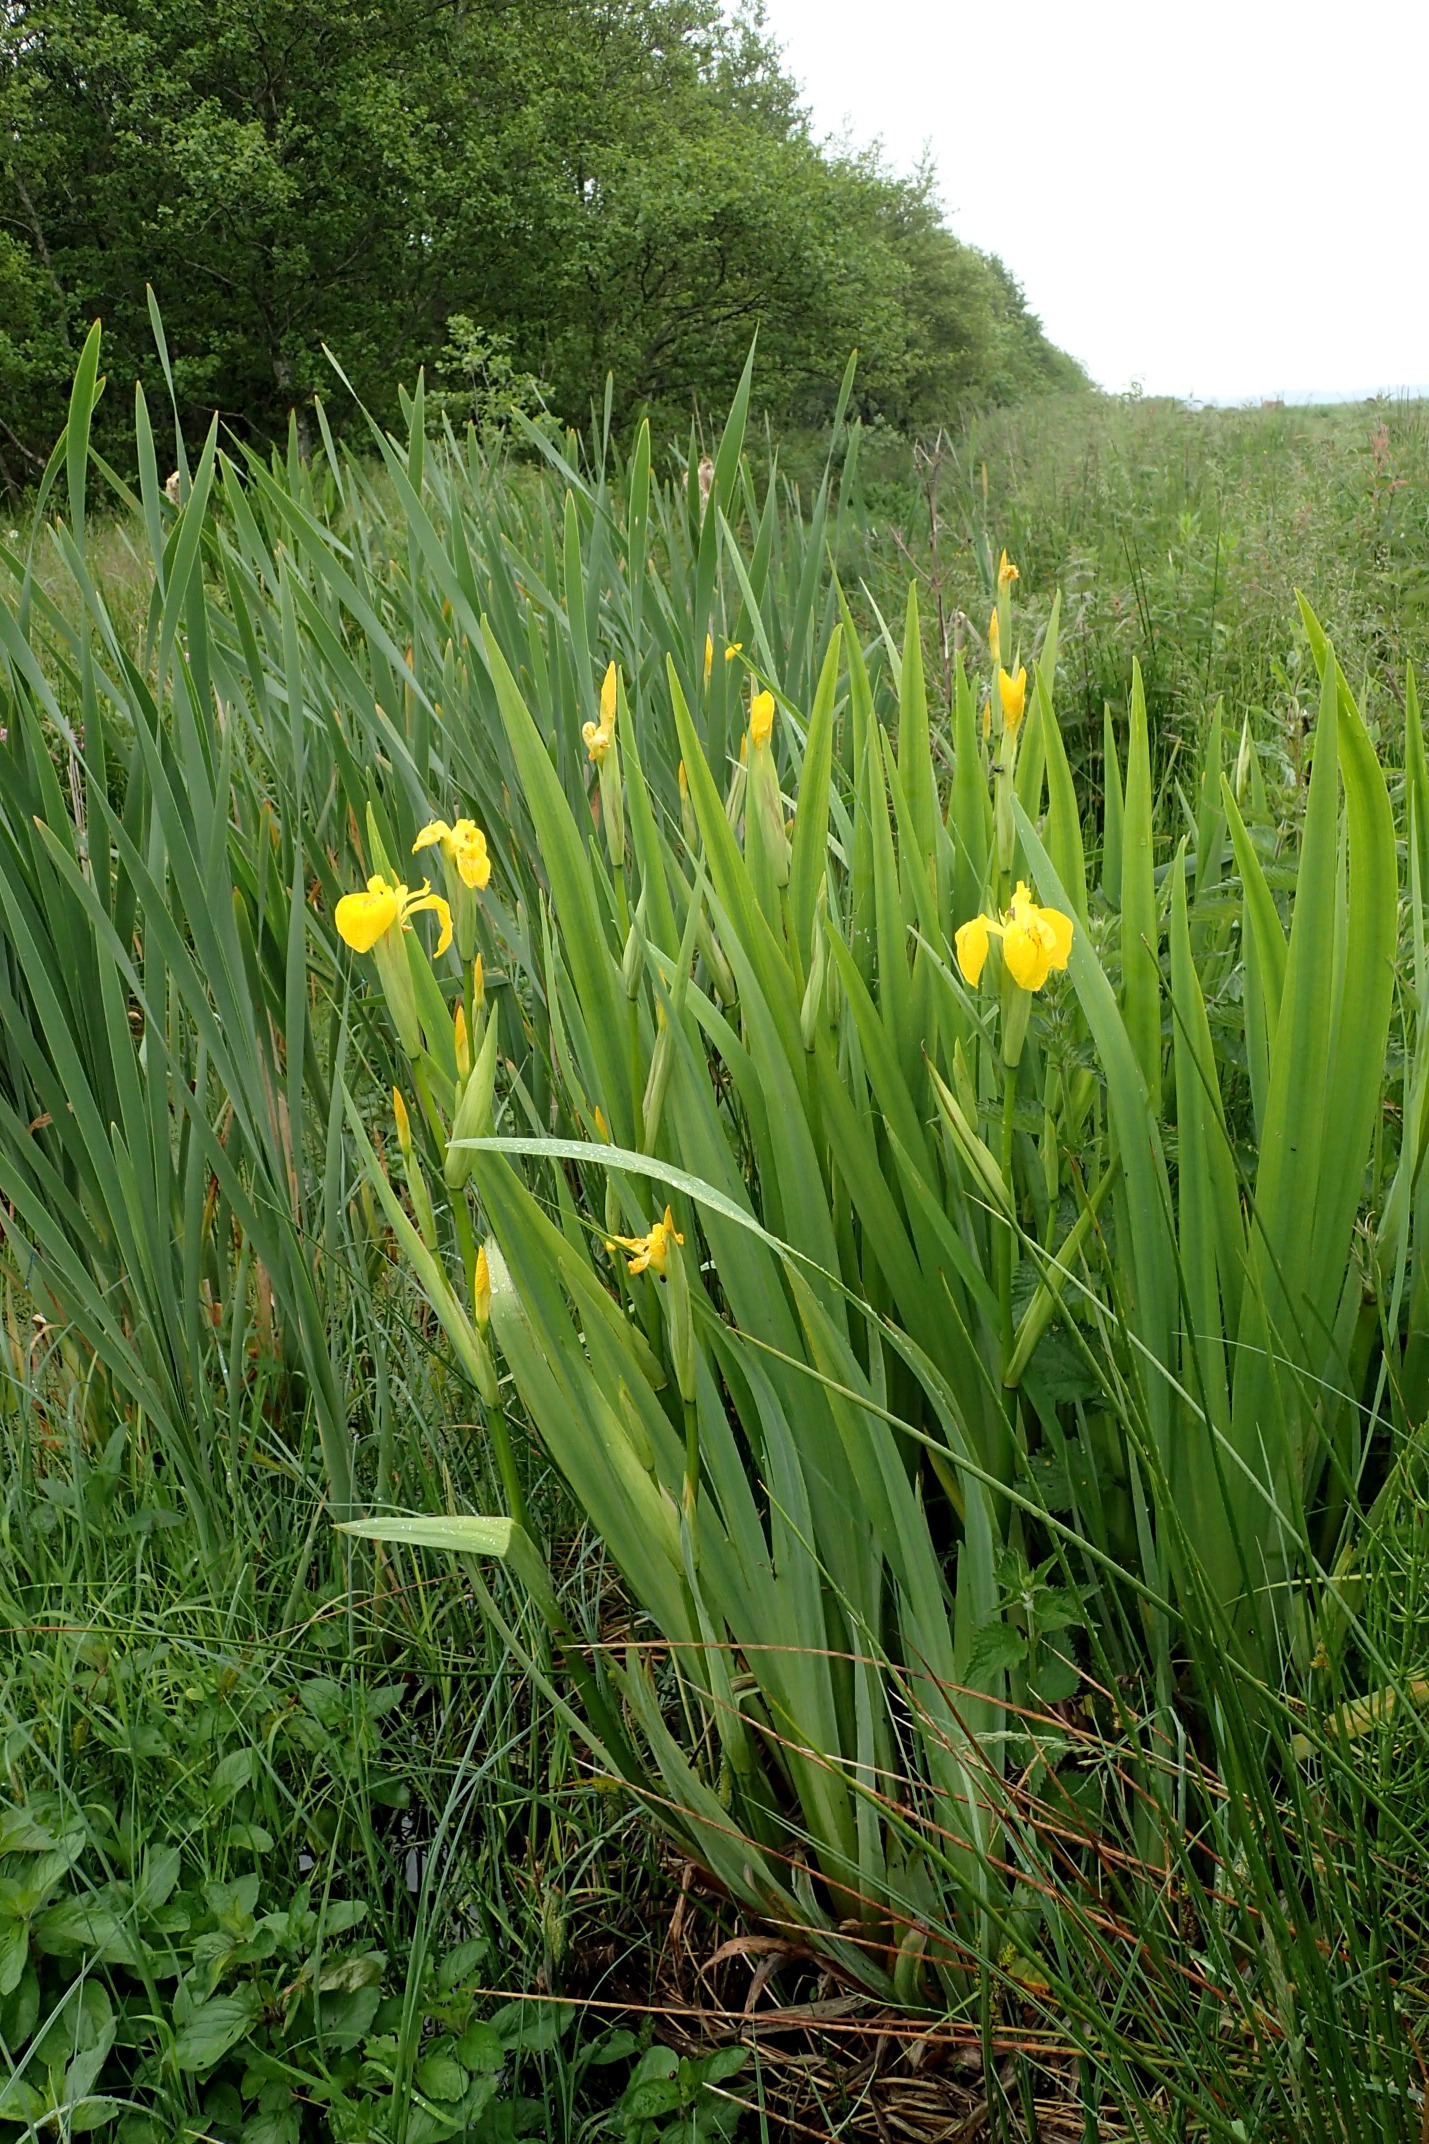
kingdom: Plantae
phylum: Tracheophyta
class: Liliopsida
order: Asparagales
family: Iridaceae
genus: Iris
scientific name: Iris pseudacorus
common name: Gul iris
